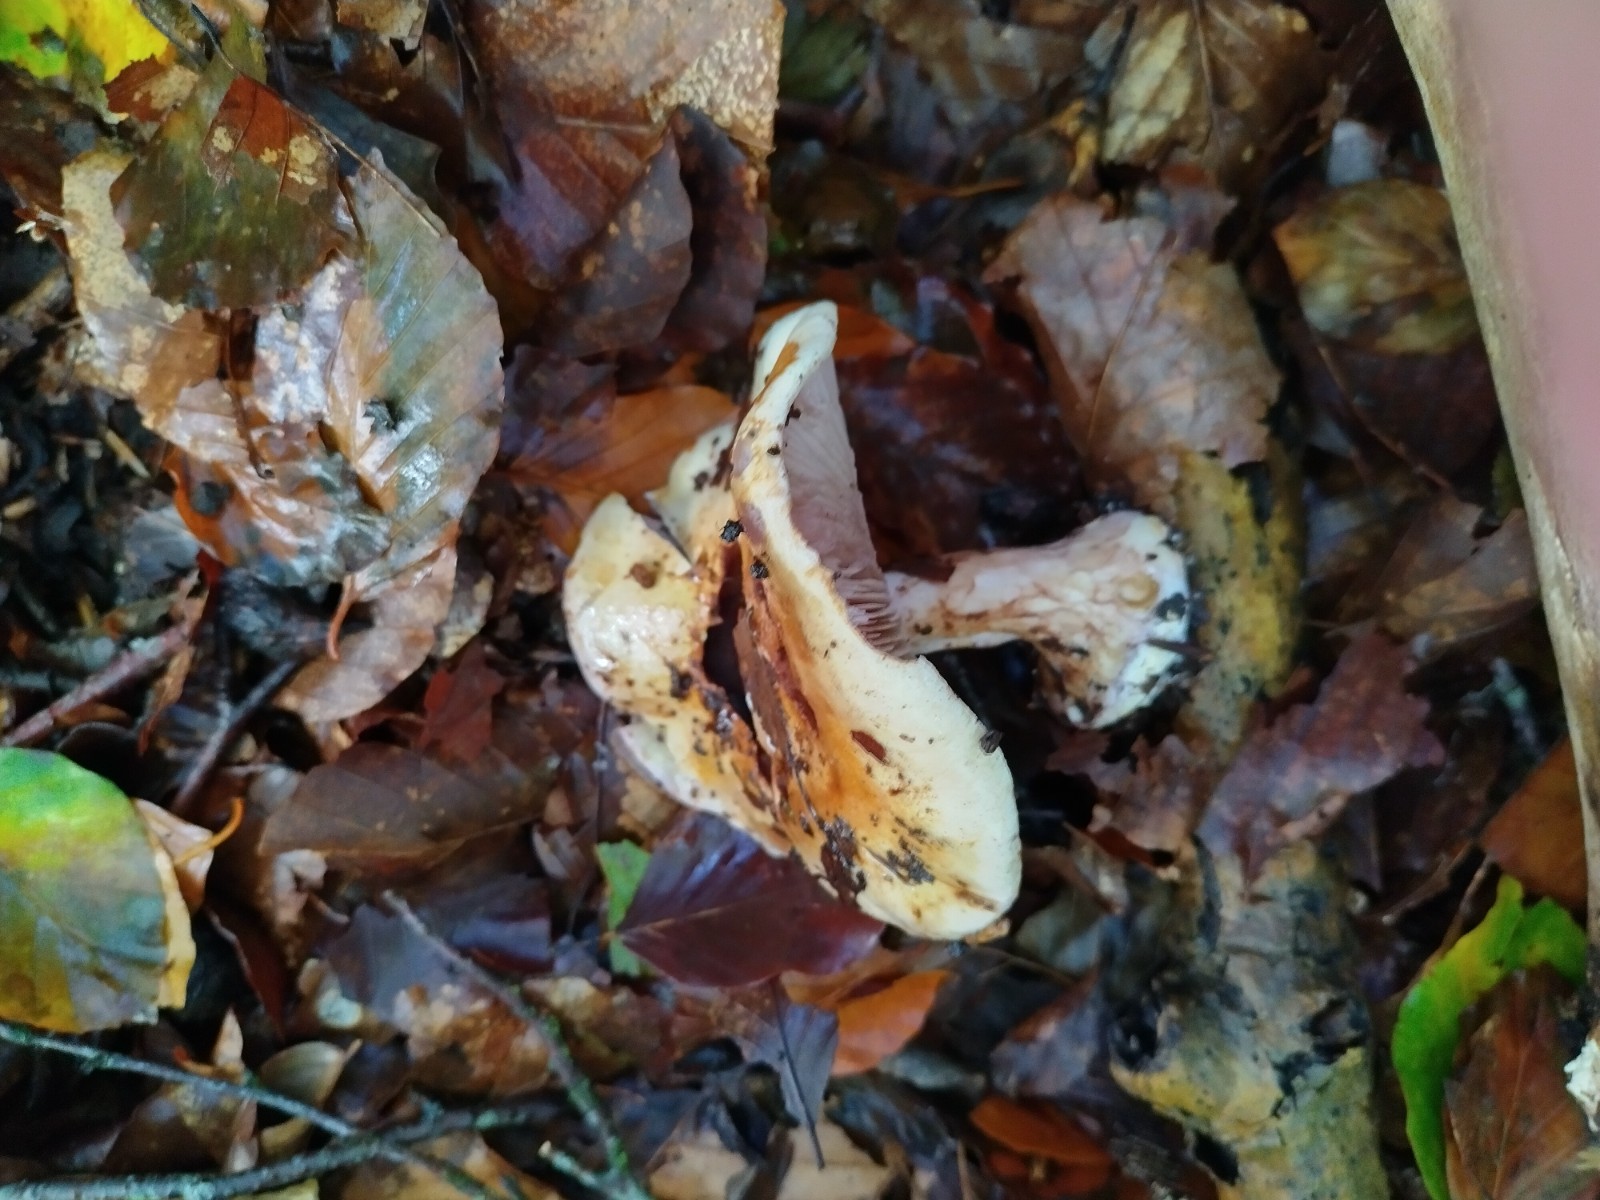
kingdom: Fungi
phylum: Basidiomycota
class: Agaricomycetes
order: Agaricales
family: Cortinariaceae
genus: Cortinarius
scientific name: Cortinarius anserinus
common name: bøge-slørhat
